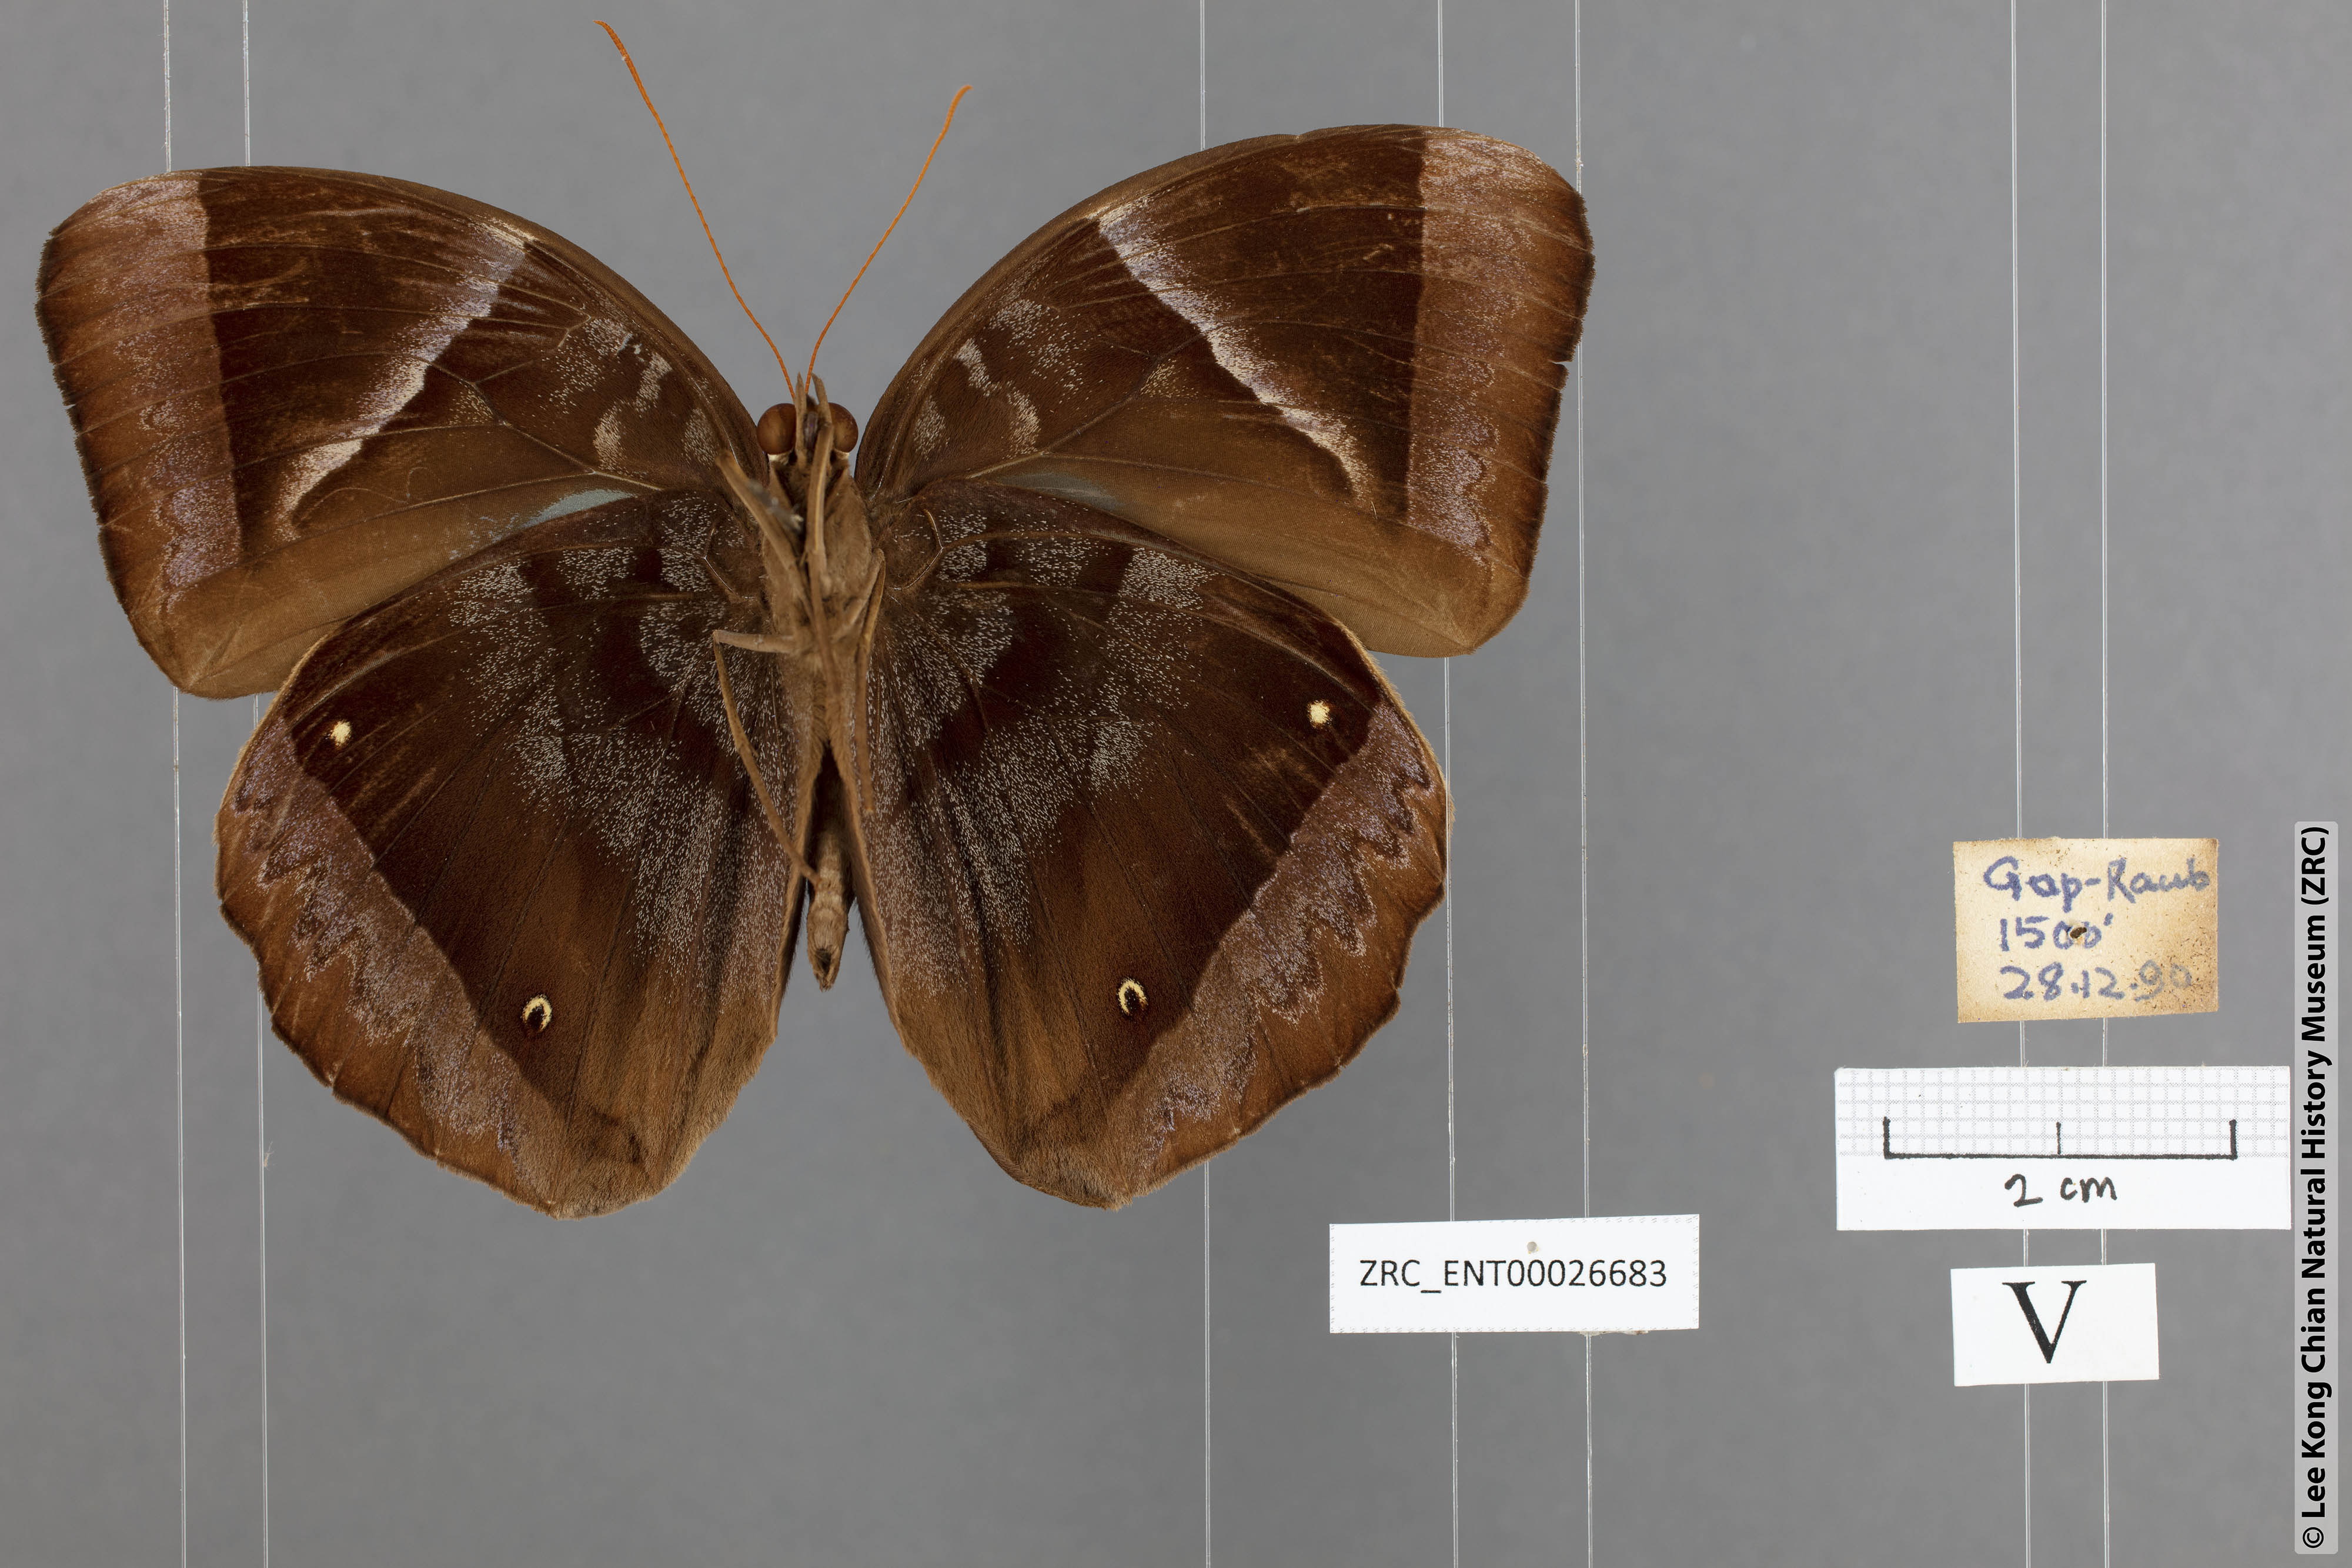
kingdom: Animalia
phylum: Arthropoda
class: Insecta
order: Lepidoptera
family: Nymphalidae
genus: Thaumantis
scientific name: Thaumantis klugius
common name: Dark blue jungle glory
